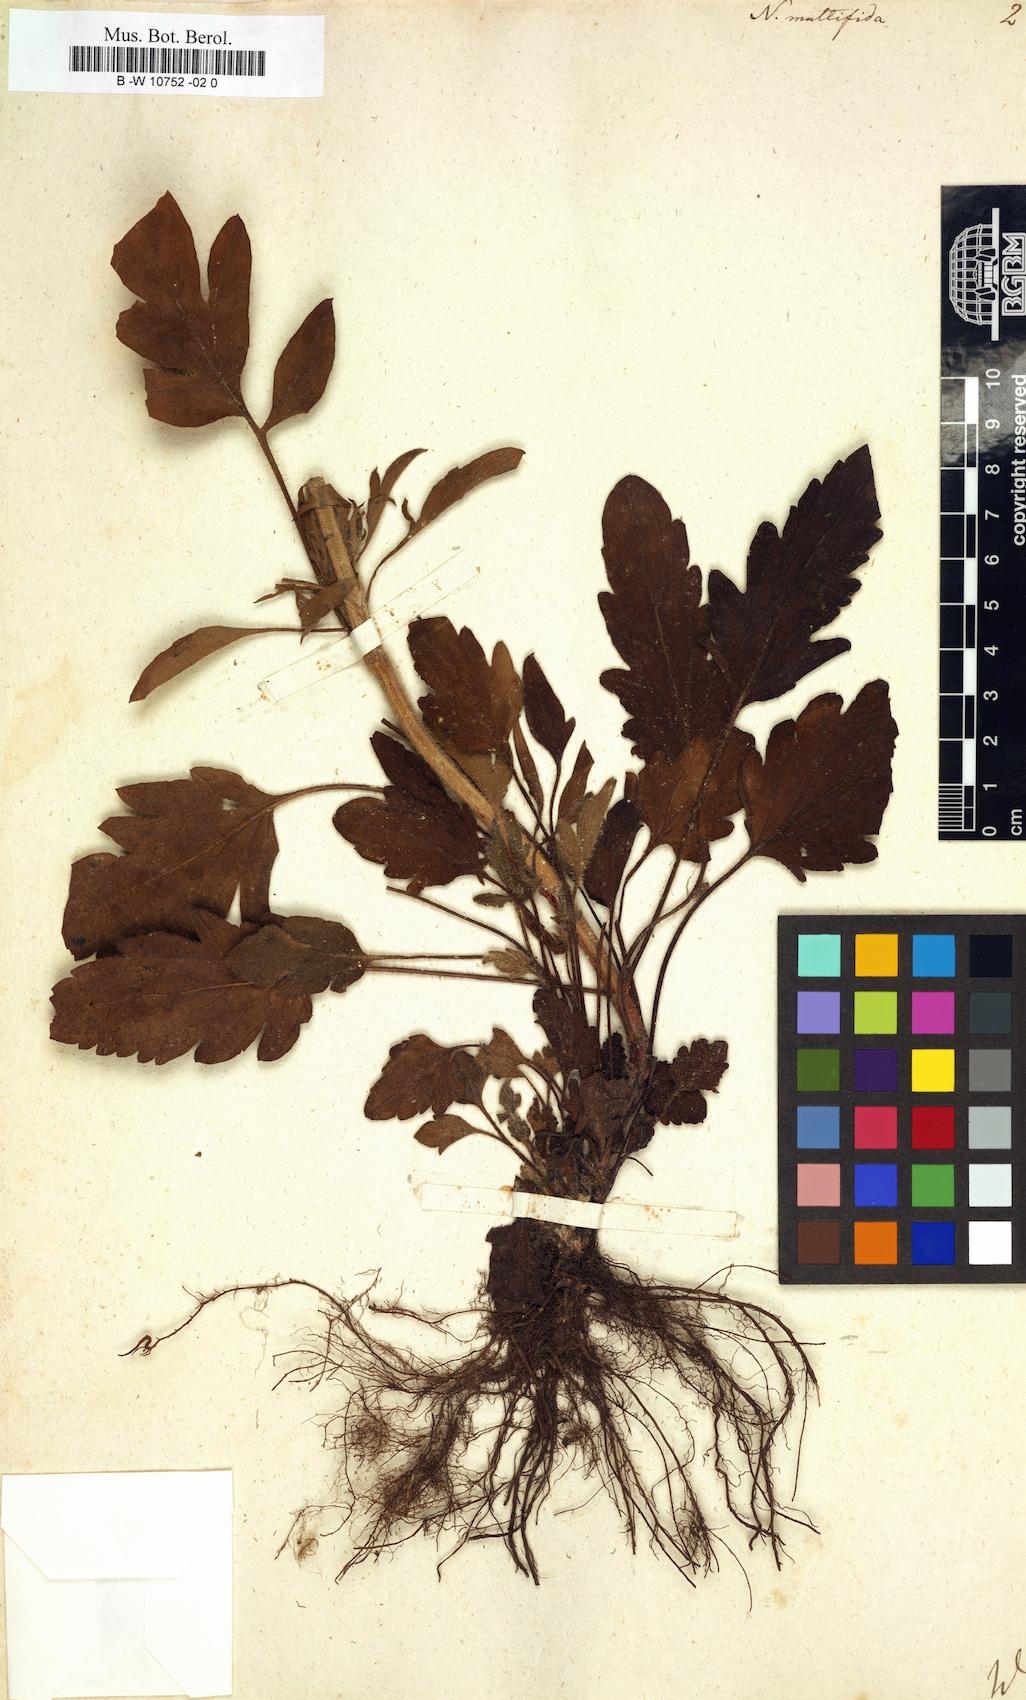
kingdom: Plantae
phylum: Tracheophyta
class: Magnoliopsida
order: Lamiales
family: Lamiaceae
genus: Nepeta
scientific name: Nepeta multifida
